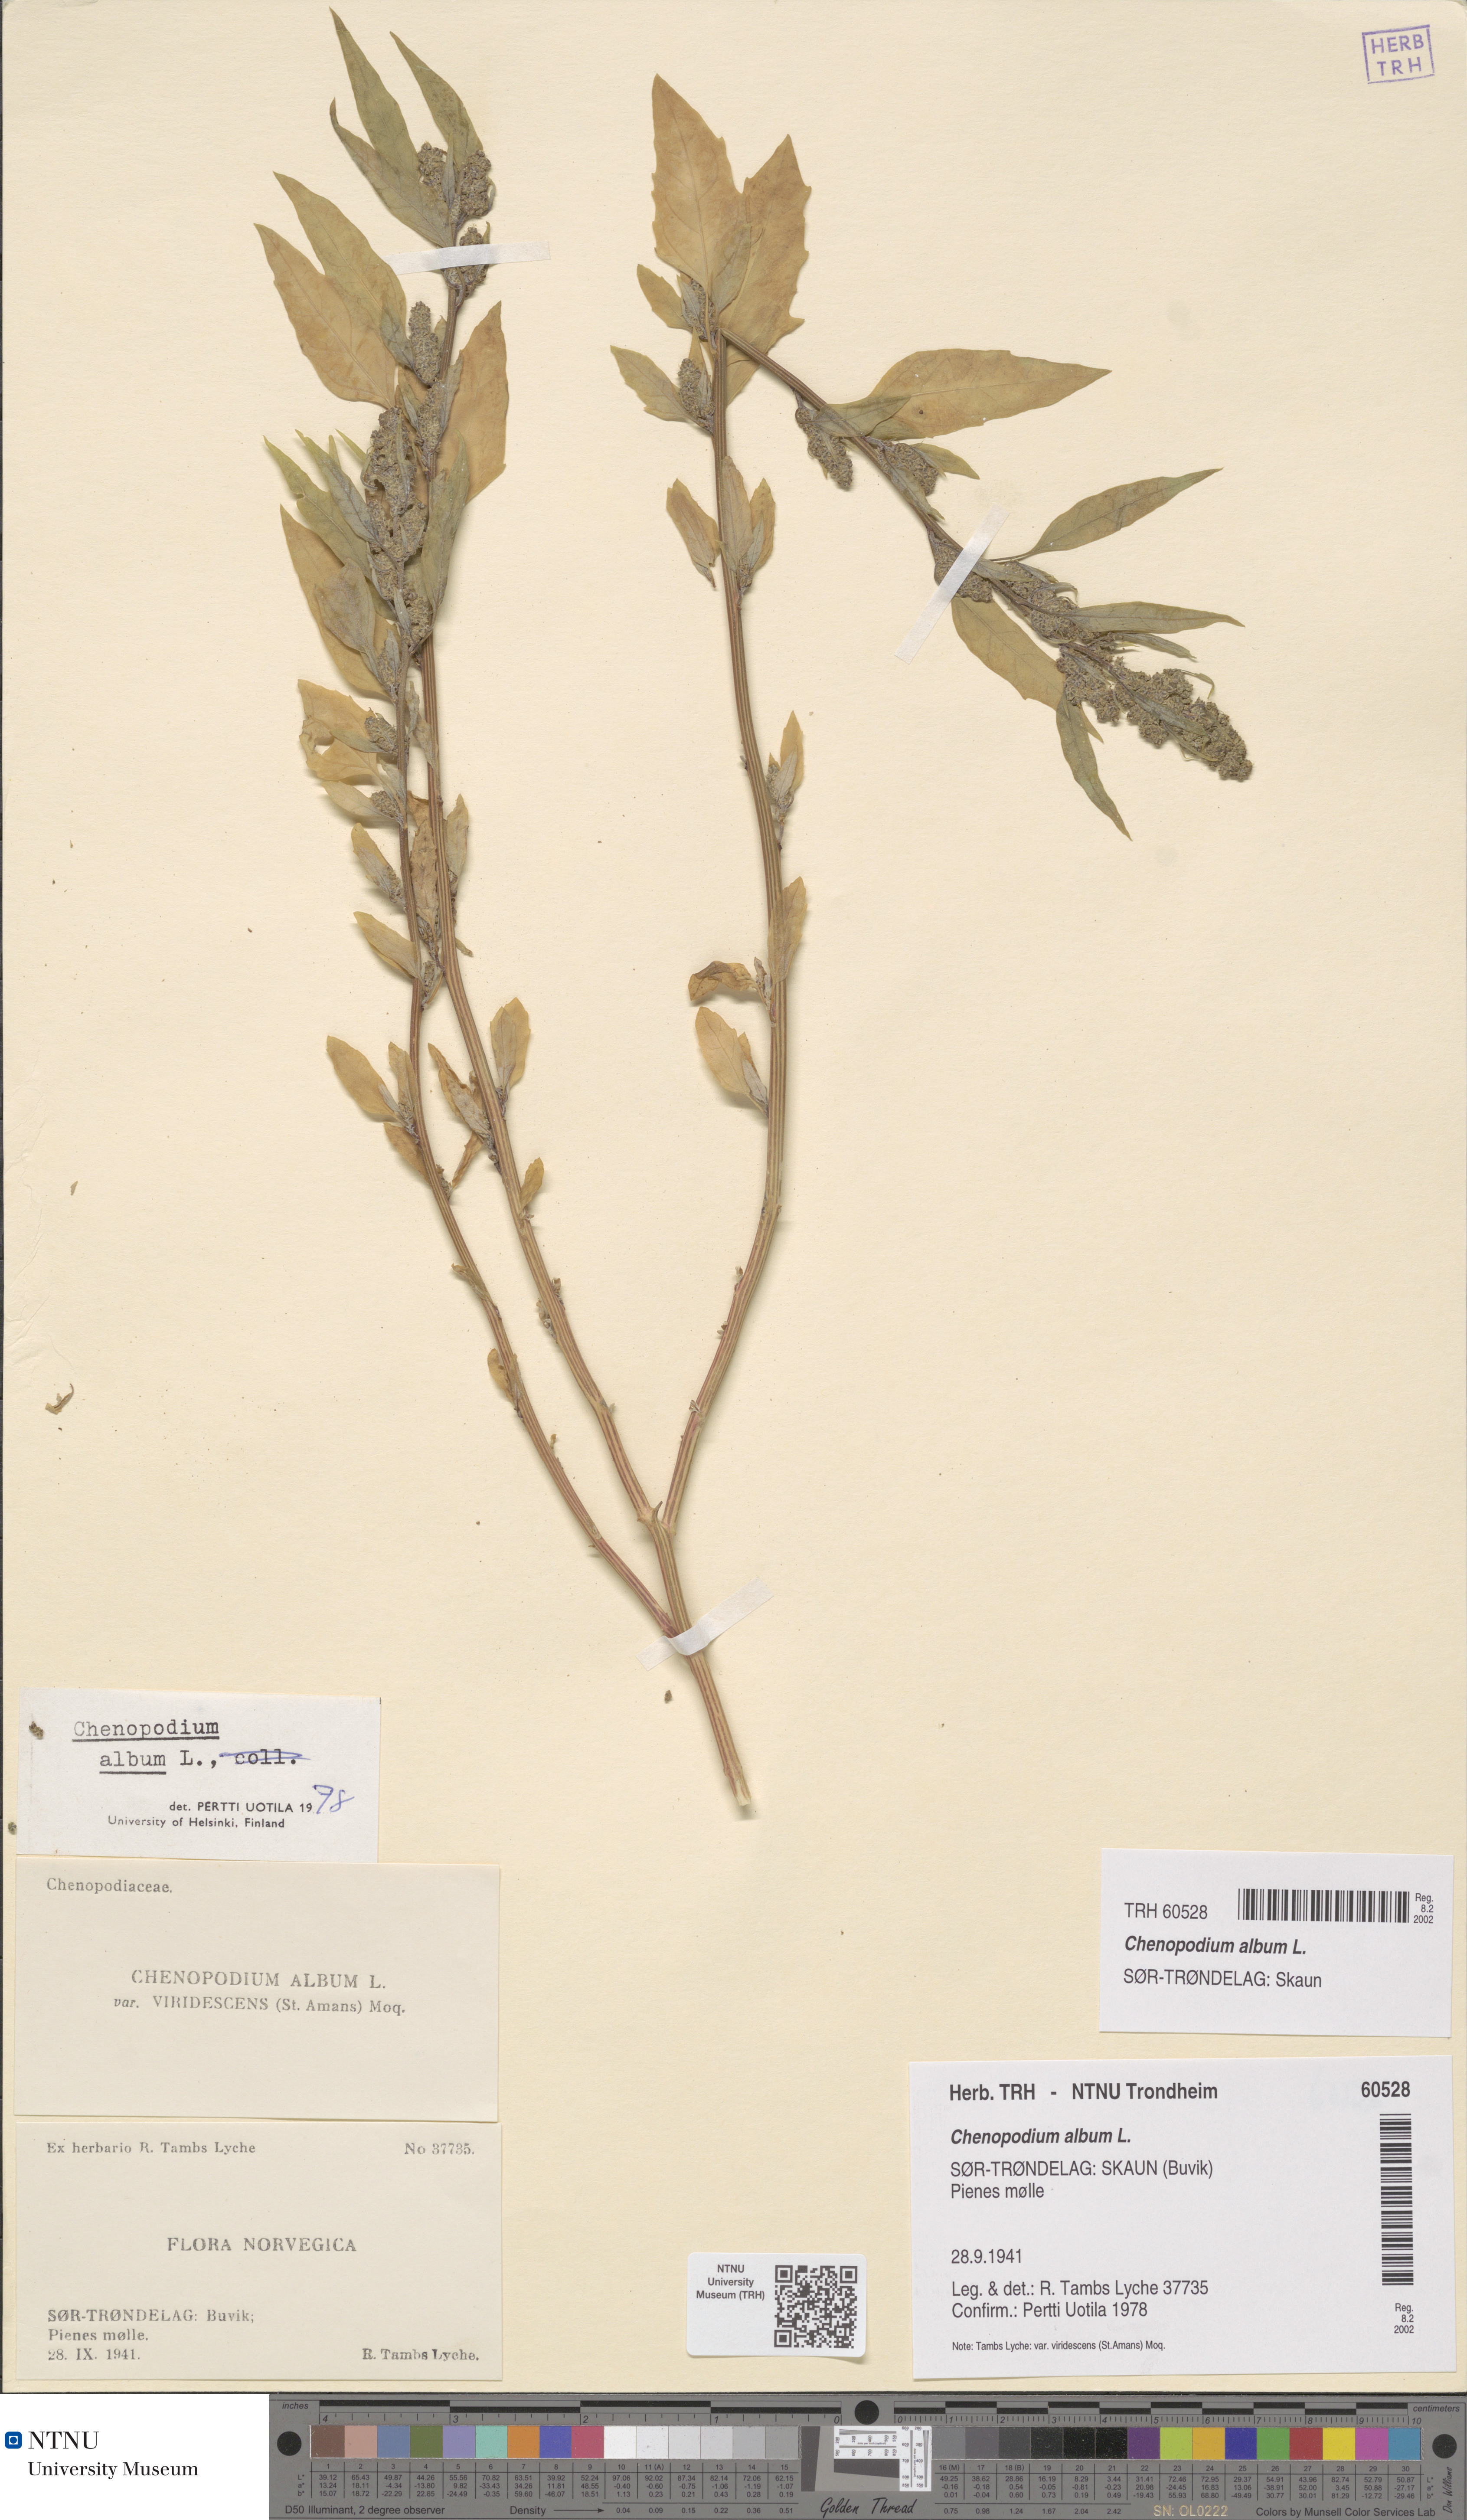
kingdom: Plantae
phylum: Tracheophyta
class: Magnoliopsida
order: Caryophyllales
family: Amaranthaceae
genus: Chenopodium
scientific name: Chenopodium album
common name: Fat-hen
